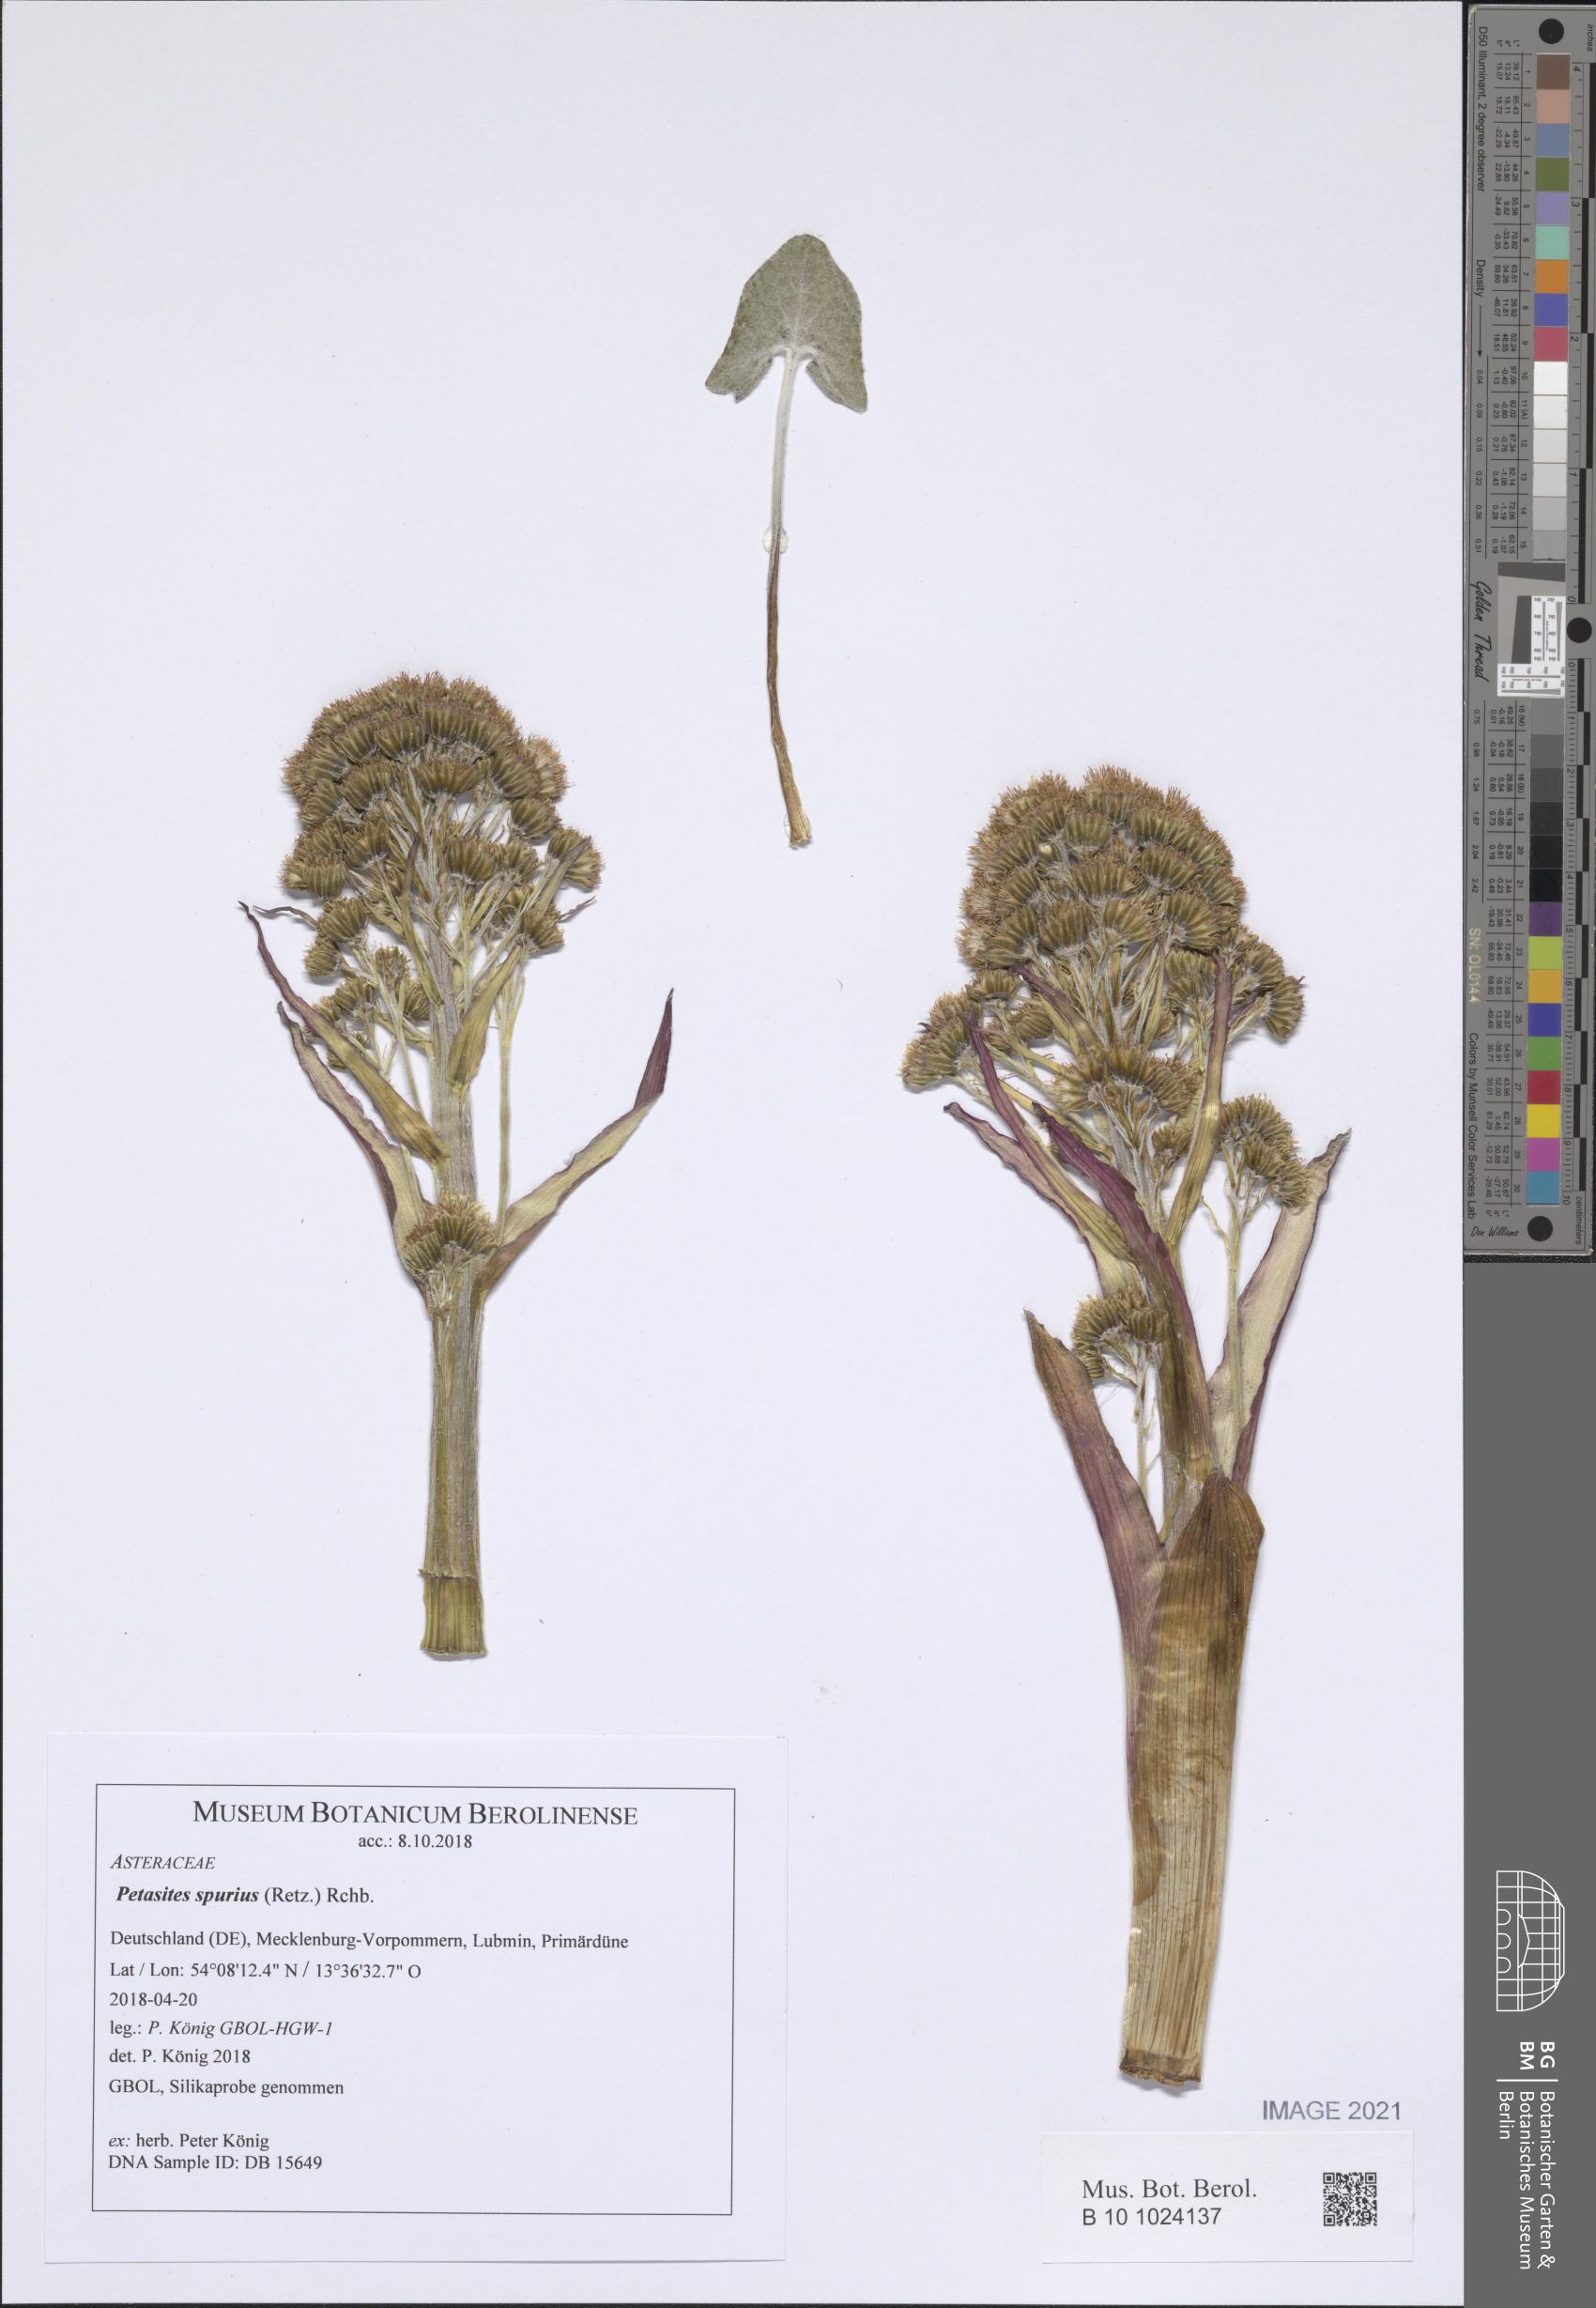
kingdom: Plantae
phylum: Tracheophyta
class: Magnoliopsida
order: Asterales
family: Asteraceae
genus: Petasites
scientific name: Petasites spurius
